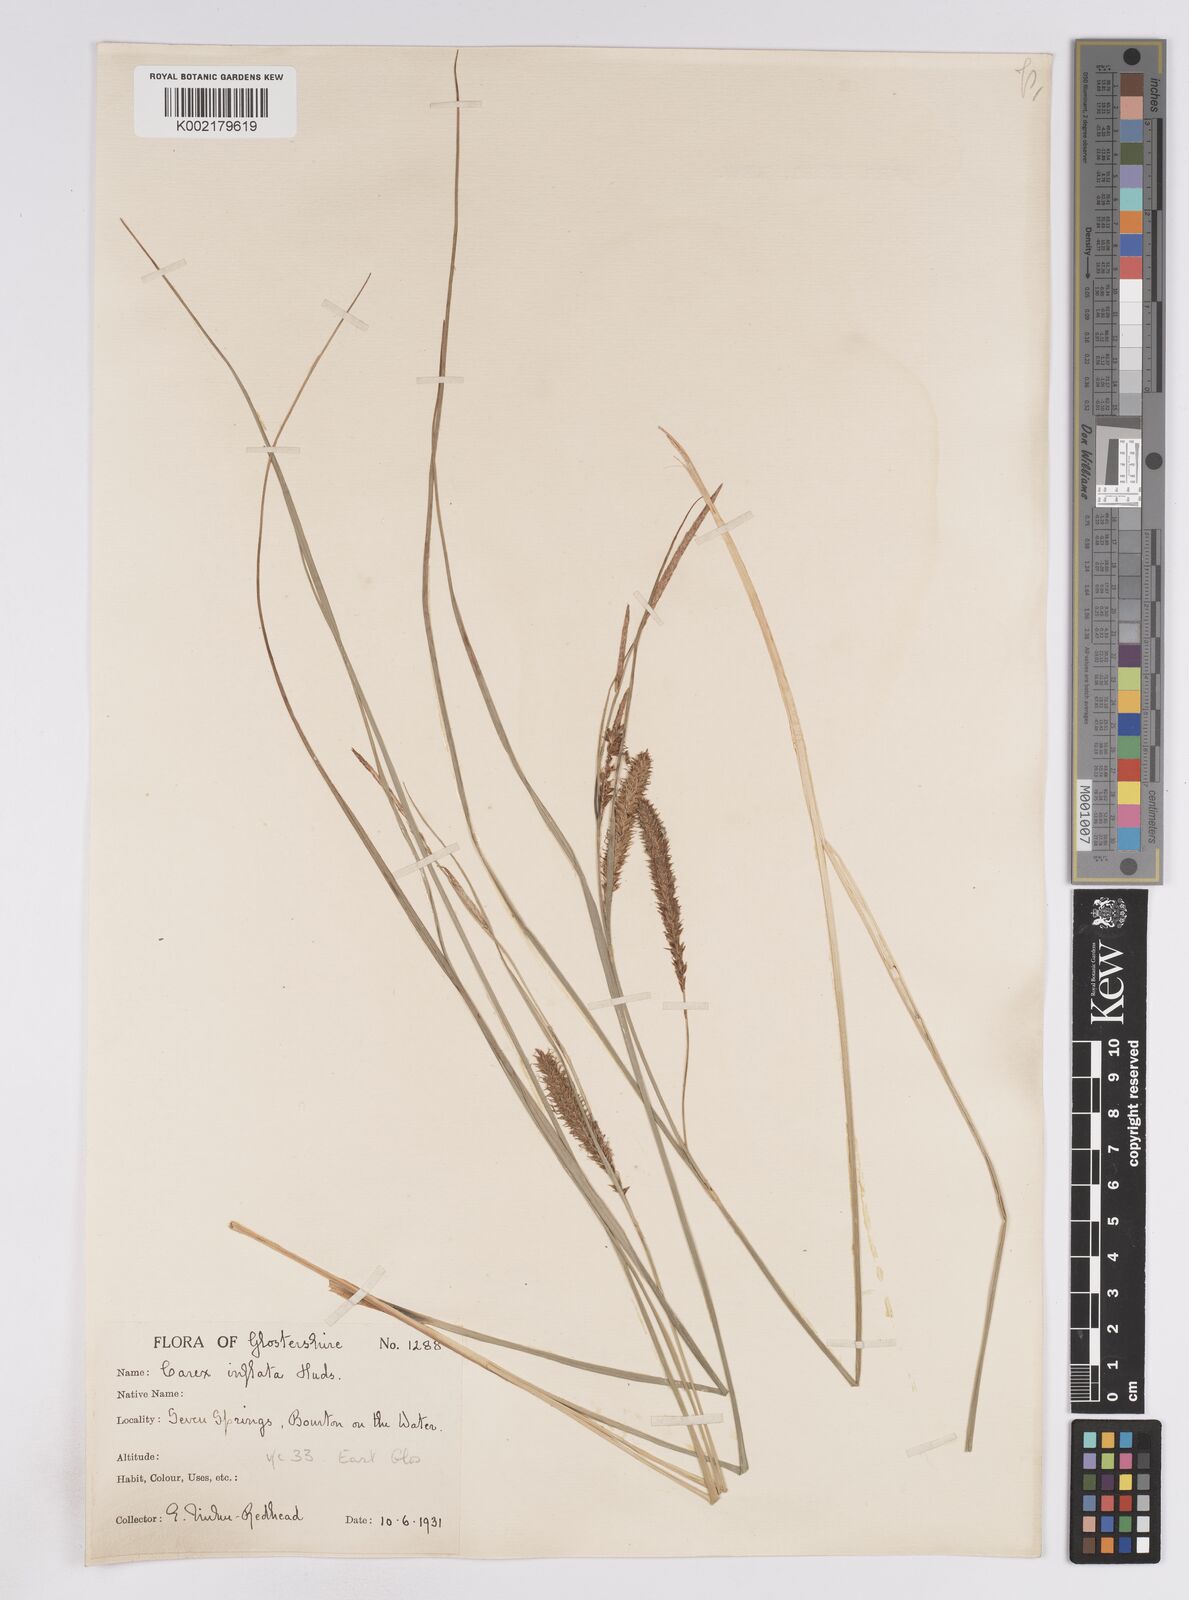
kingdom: Plantae
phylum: Tracheophyta
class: Liliopsida
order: Poales
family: Cyperaceae
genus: Carex
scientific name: Carex rostrata
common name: Bottle sedge
